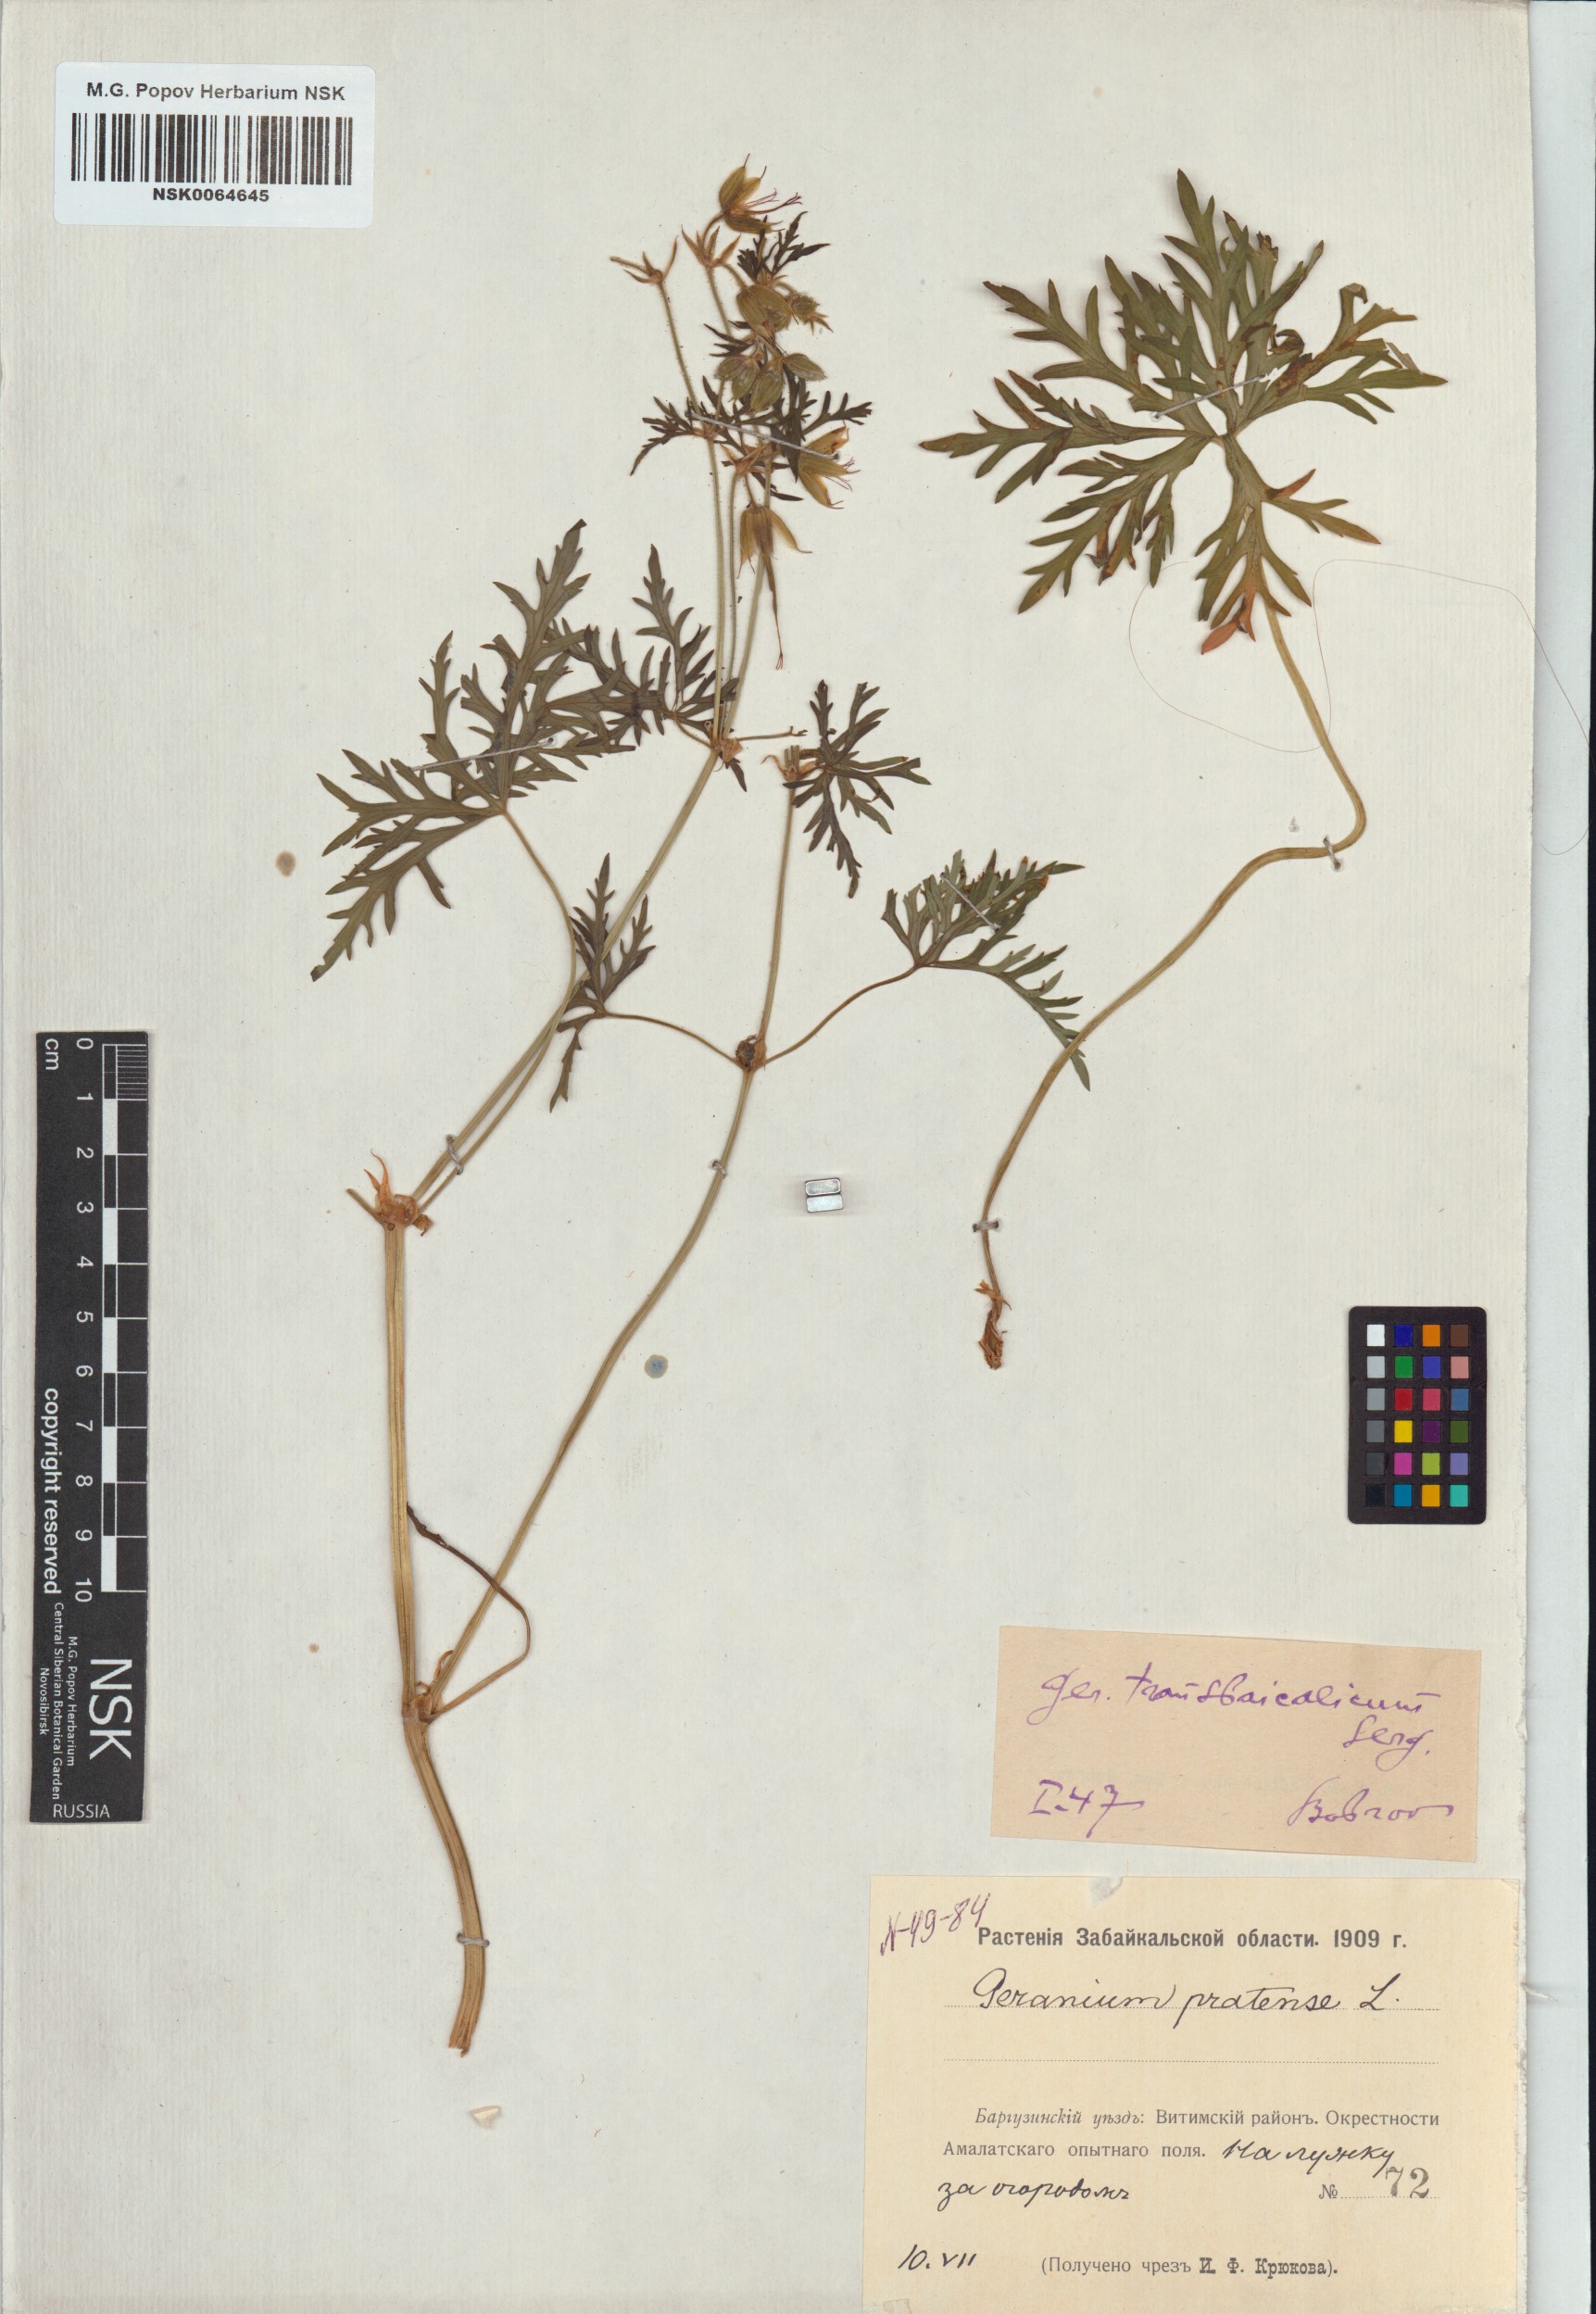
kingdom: Plantae
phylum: Tracheophyta
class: Magnoliopsida
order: Geraniales
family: Geraniaceae
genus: Geranium
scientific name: Geranium pratense
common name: Meadow crane's-bill
